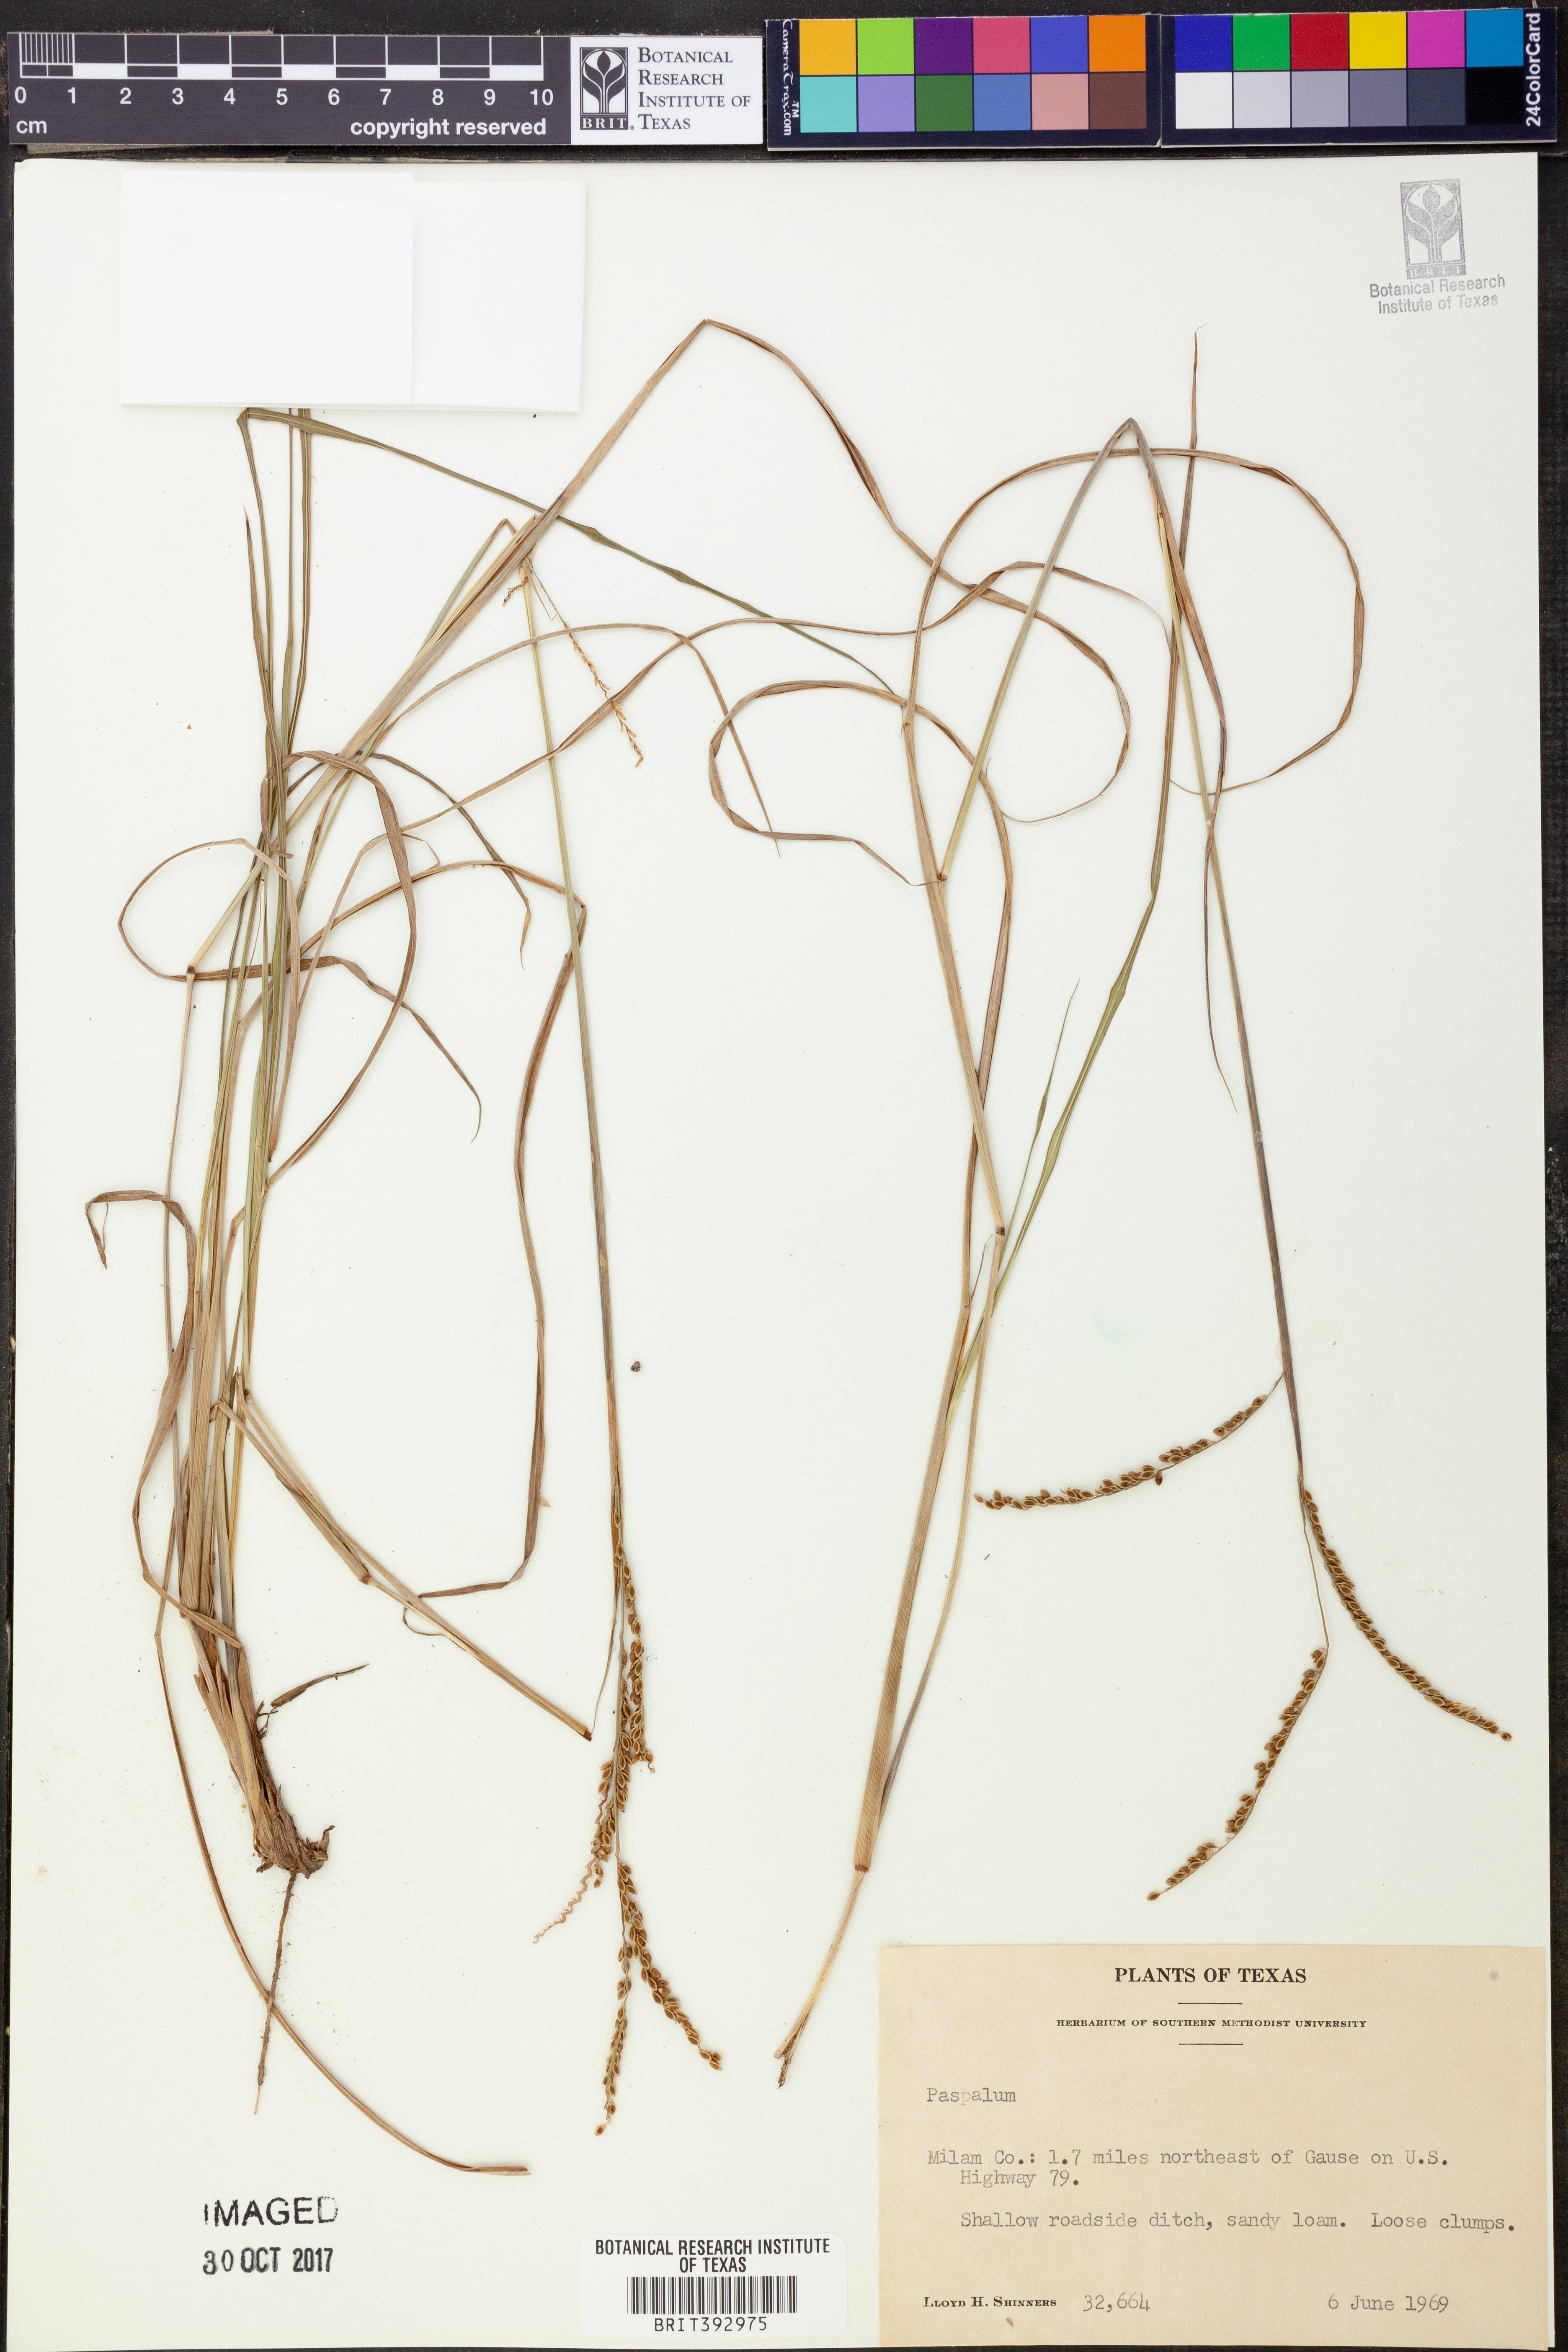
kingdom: Plantae
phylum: Tracheophyta
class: Liliopsida
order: Poales
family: Poaceae
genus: Paspalum
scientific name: Paspalum
